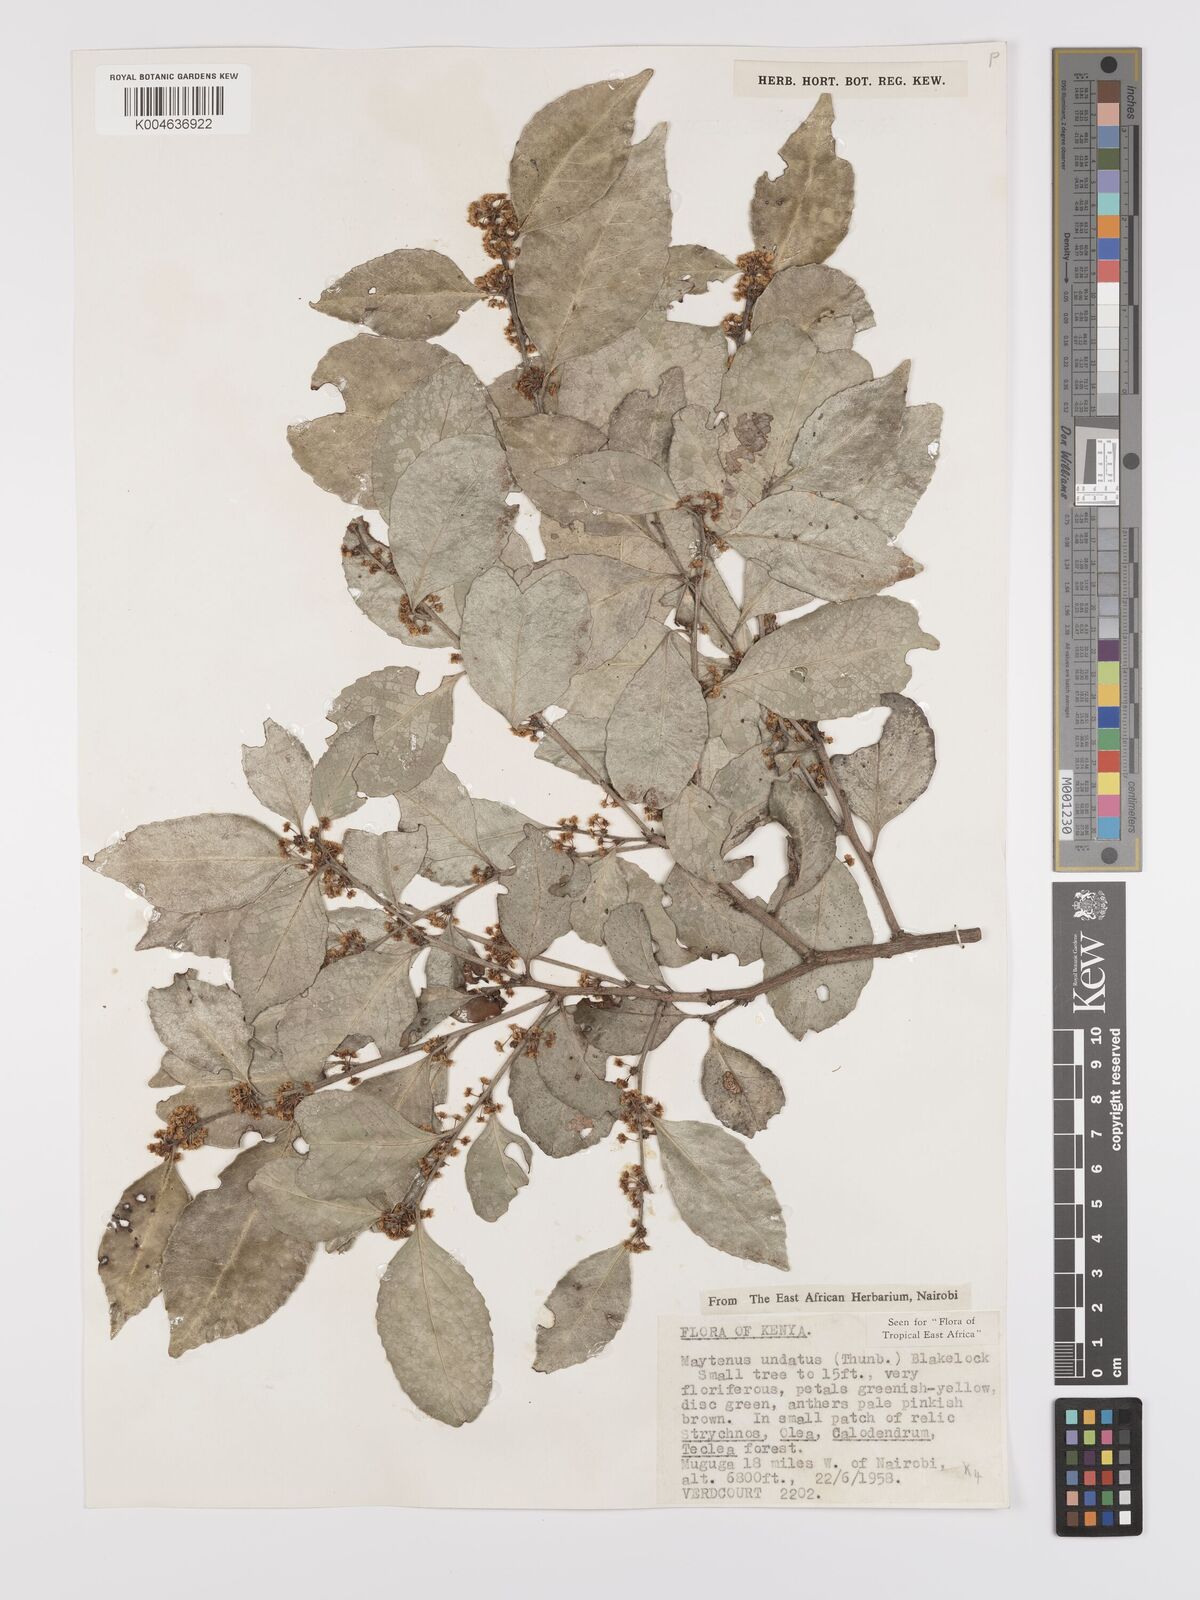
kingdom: Plantae
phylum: Tracheophyta
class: Magnoliopsida
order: Celastrales
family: Celastraceae
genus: Gymnosporia
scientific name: Gymnosporia undata
